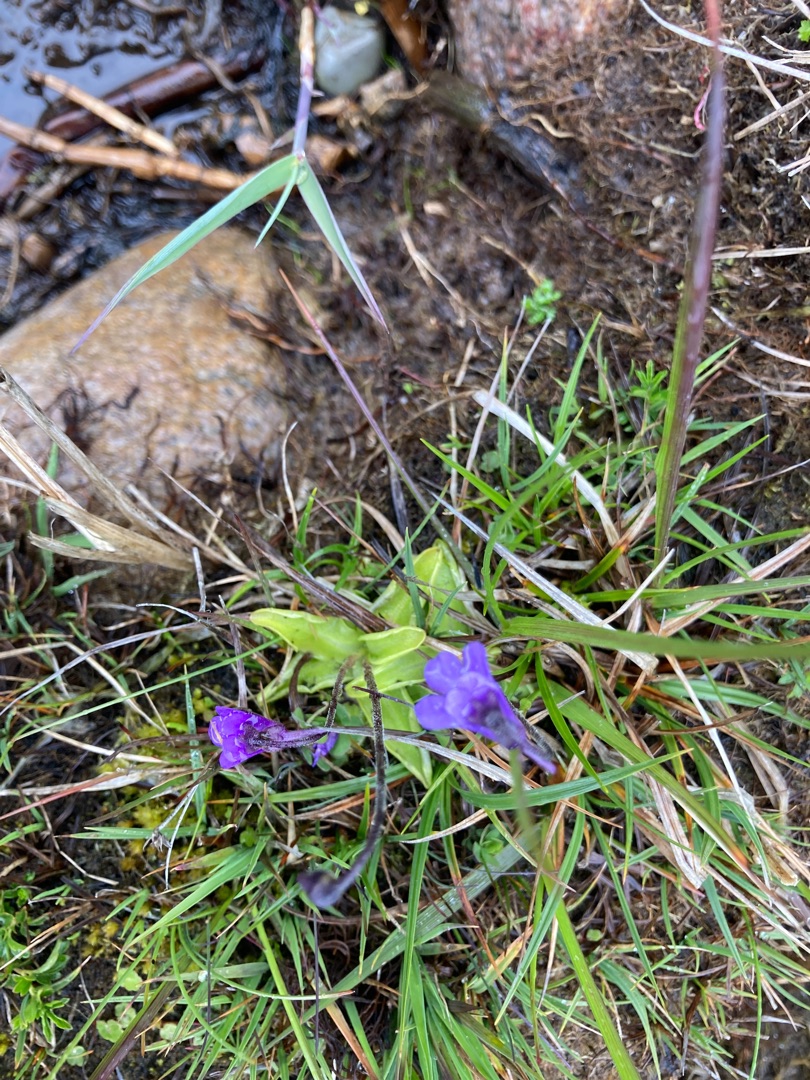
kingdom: Plantae
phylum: Tracheophyta
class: Magnoliopsida
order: Lamiales
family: Lentibulariaceae
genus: Pinguicula
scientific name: Pinguicula vulgaris
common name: Vibefedt
